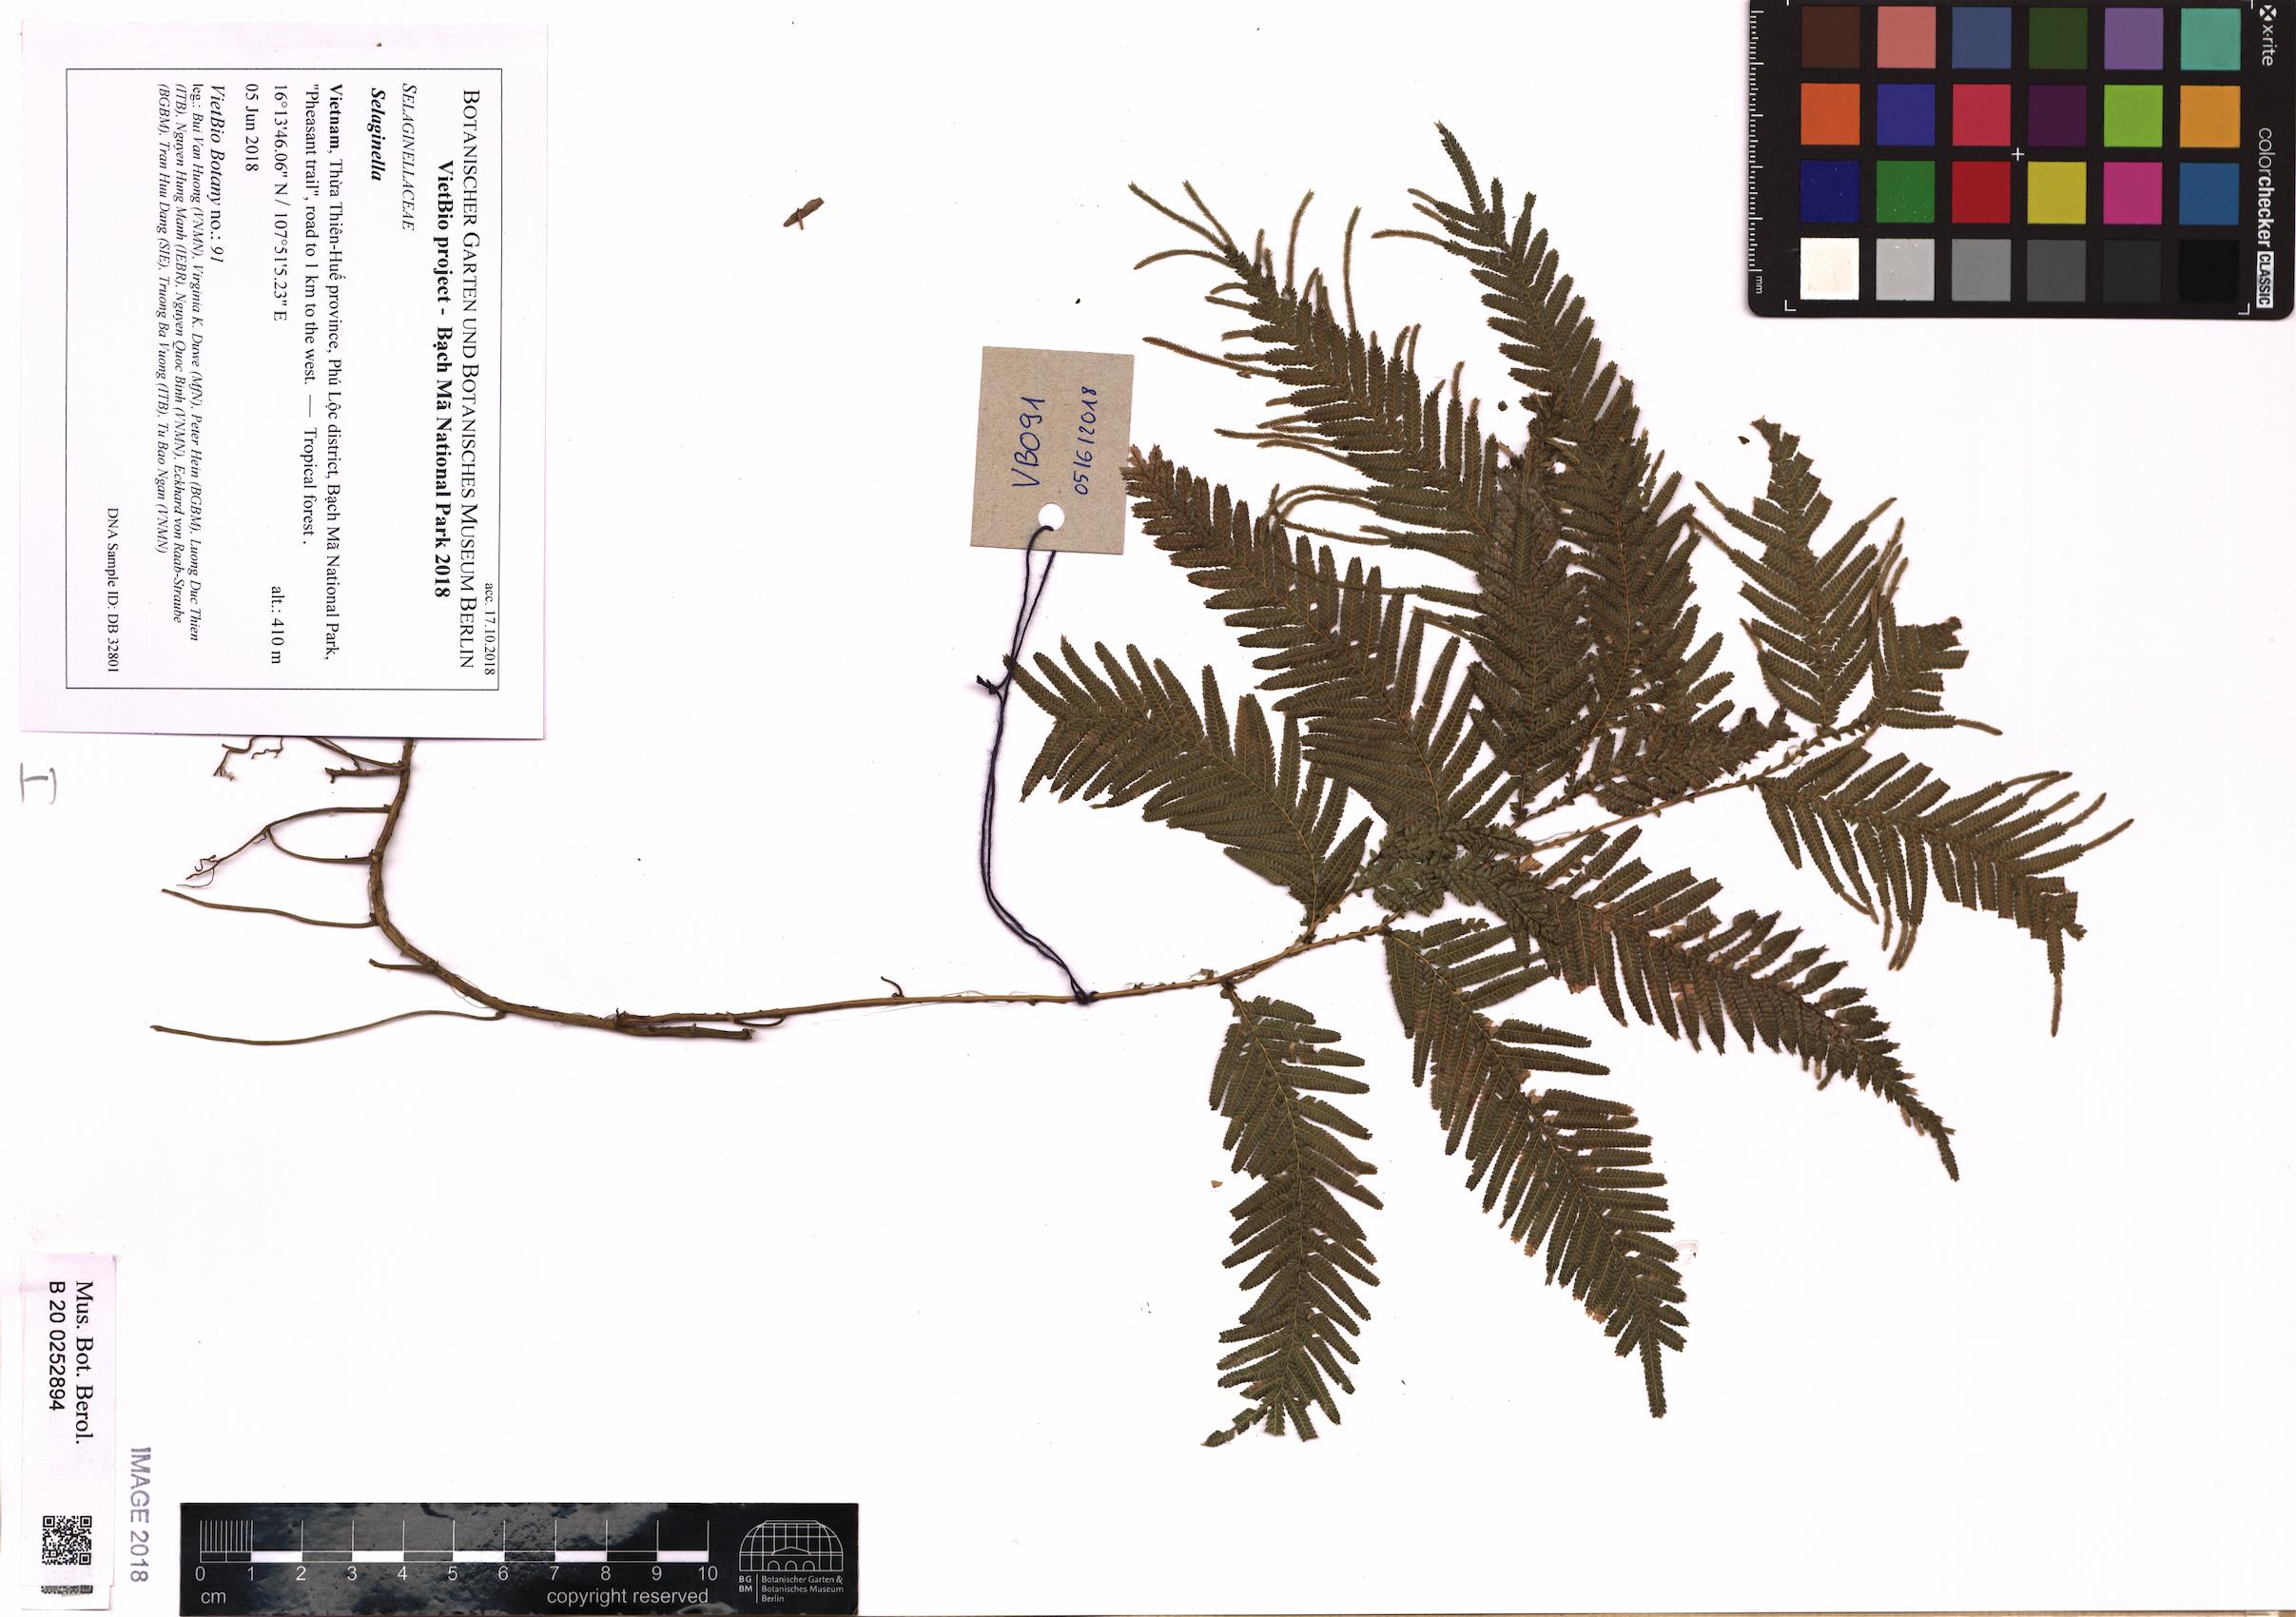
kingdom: Plantae
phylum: Tracheophyta
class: Lycopodiopsida
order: Selaginellales
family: Selaginellaceae
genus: Selaginella
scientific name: Selaginella
